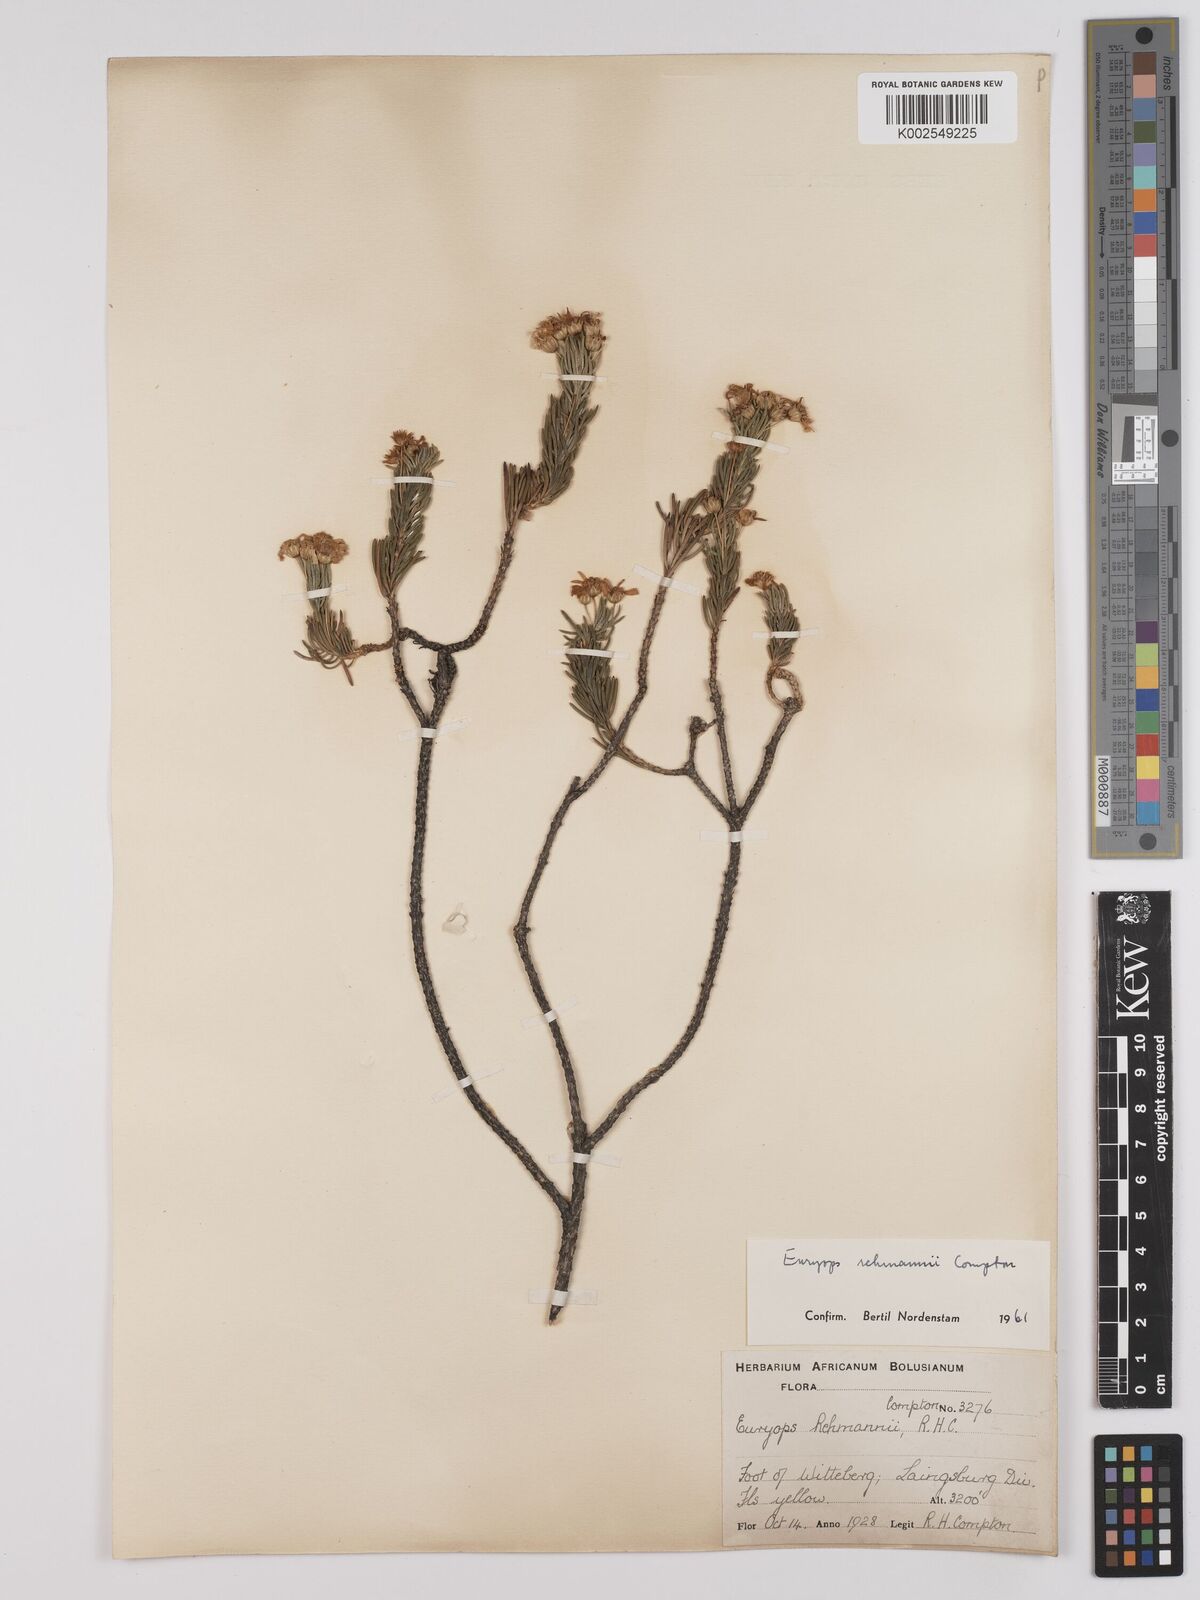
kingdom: Plantae
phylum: Tracheophyta
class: Magnoliopsida
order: Asterales
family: Asteraceae
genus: Euryops
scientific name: Euryops rehmannii
